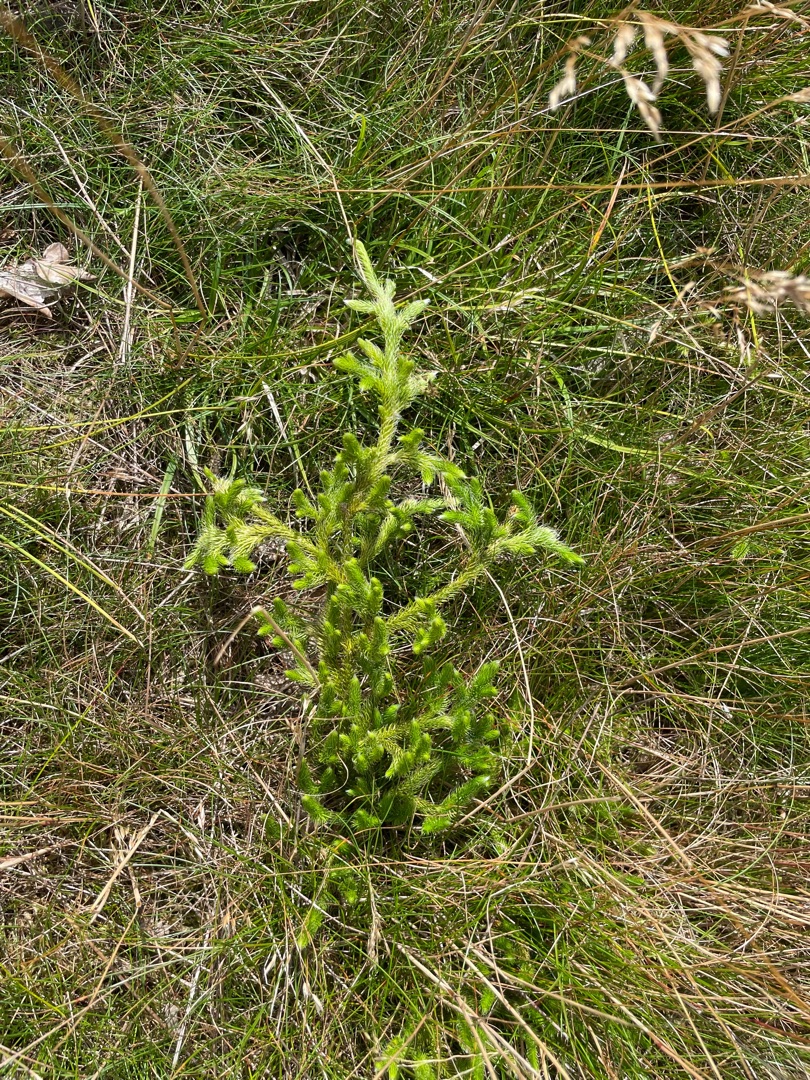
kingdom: Plantae
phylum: Tracheophyta
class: Lycopodiopsida
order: Lycopodiales
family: Lycopodiaceae
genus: Lycopodium
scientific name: Lycopodium clavatum
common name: Almindelig ulvefod
